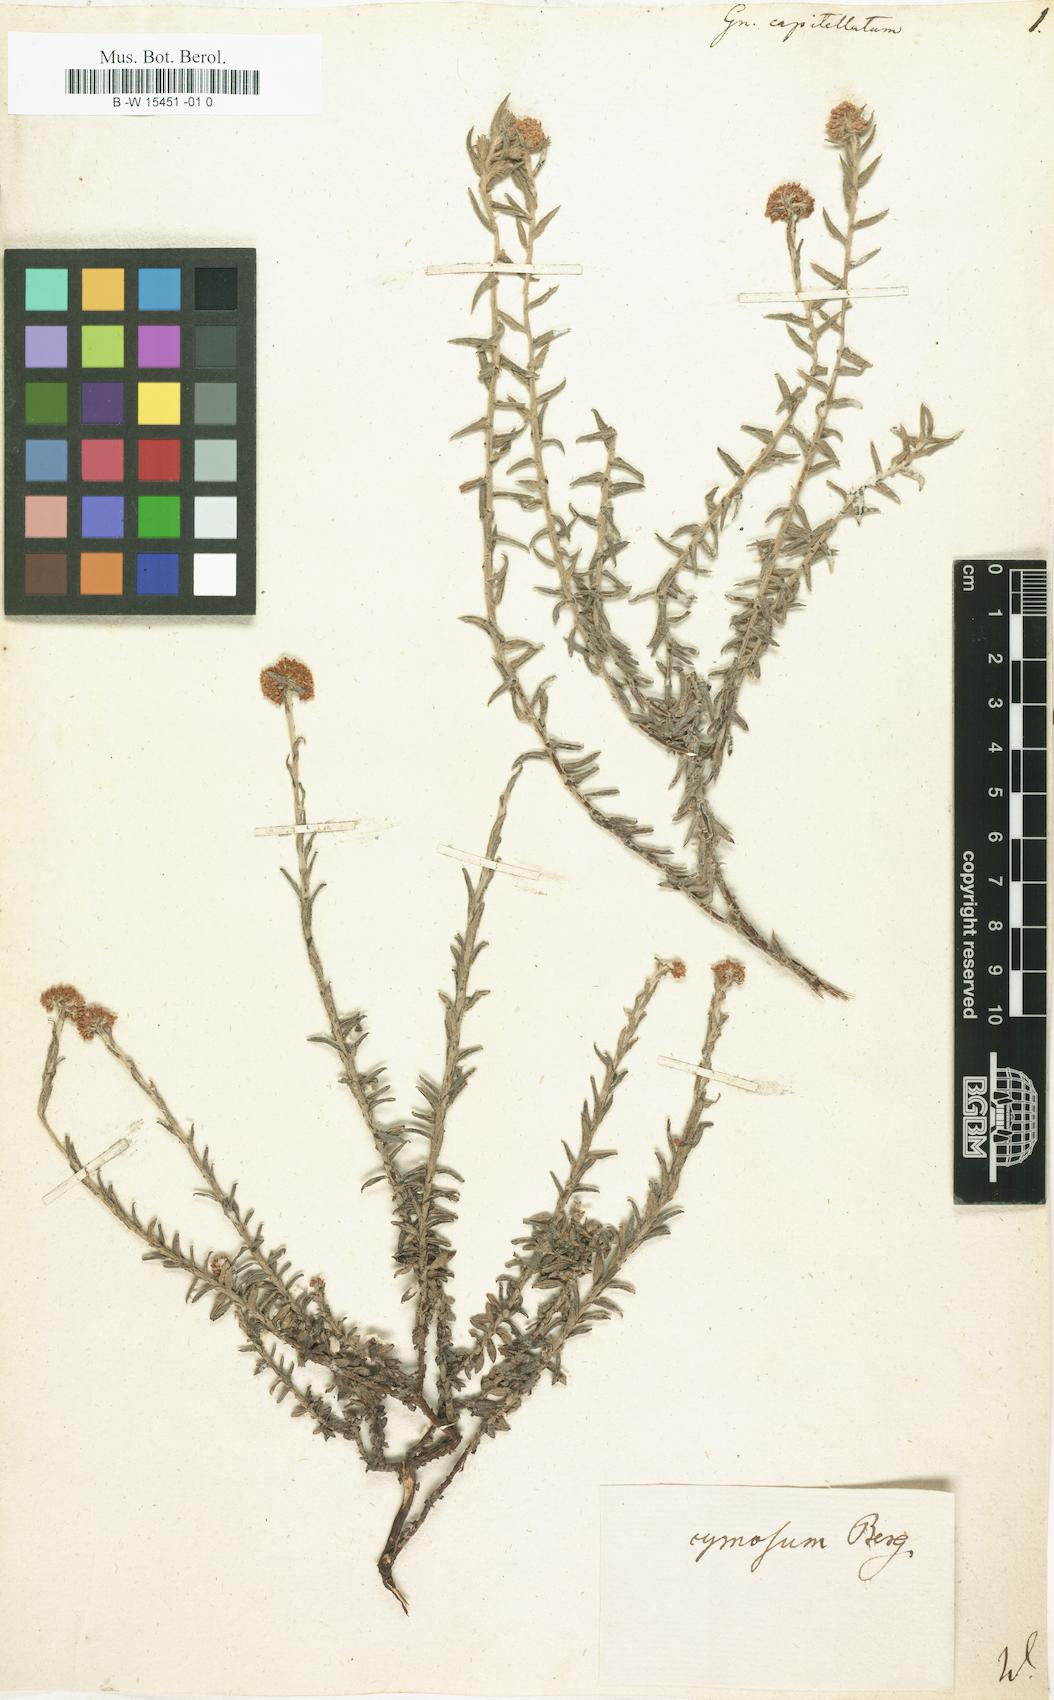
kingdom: Plantae
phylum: Tracheophyta
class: Magnoliopsida
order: Asterales
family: Asteraceae
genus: Helichrysum
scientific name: Helichrysum helianthemifolium
